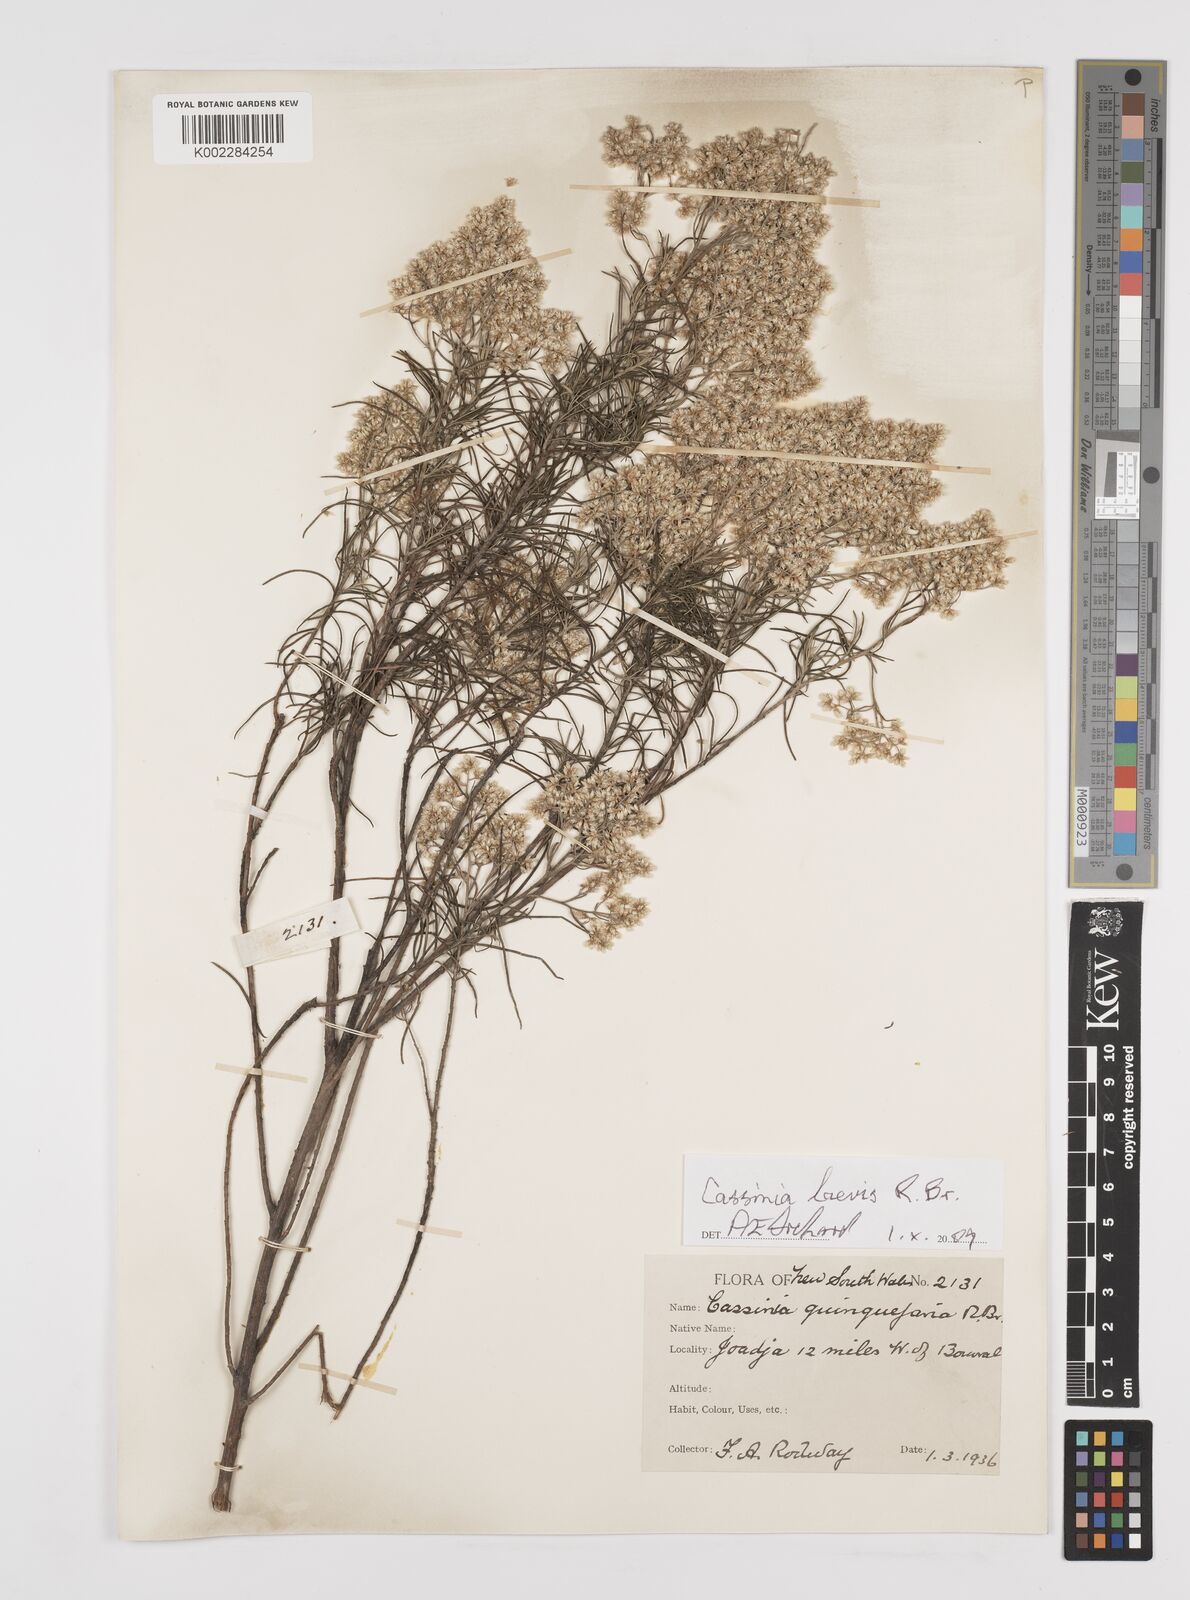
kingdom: Plantae
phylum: Tracheophyta
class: Magnoliopsida
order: Asterales
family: Asteraceae
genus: Cassinia
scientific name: Cassinia laevis
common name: Coughbush
